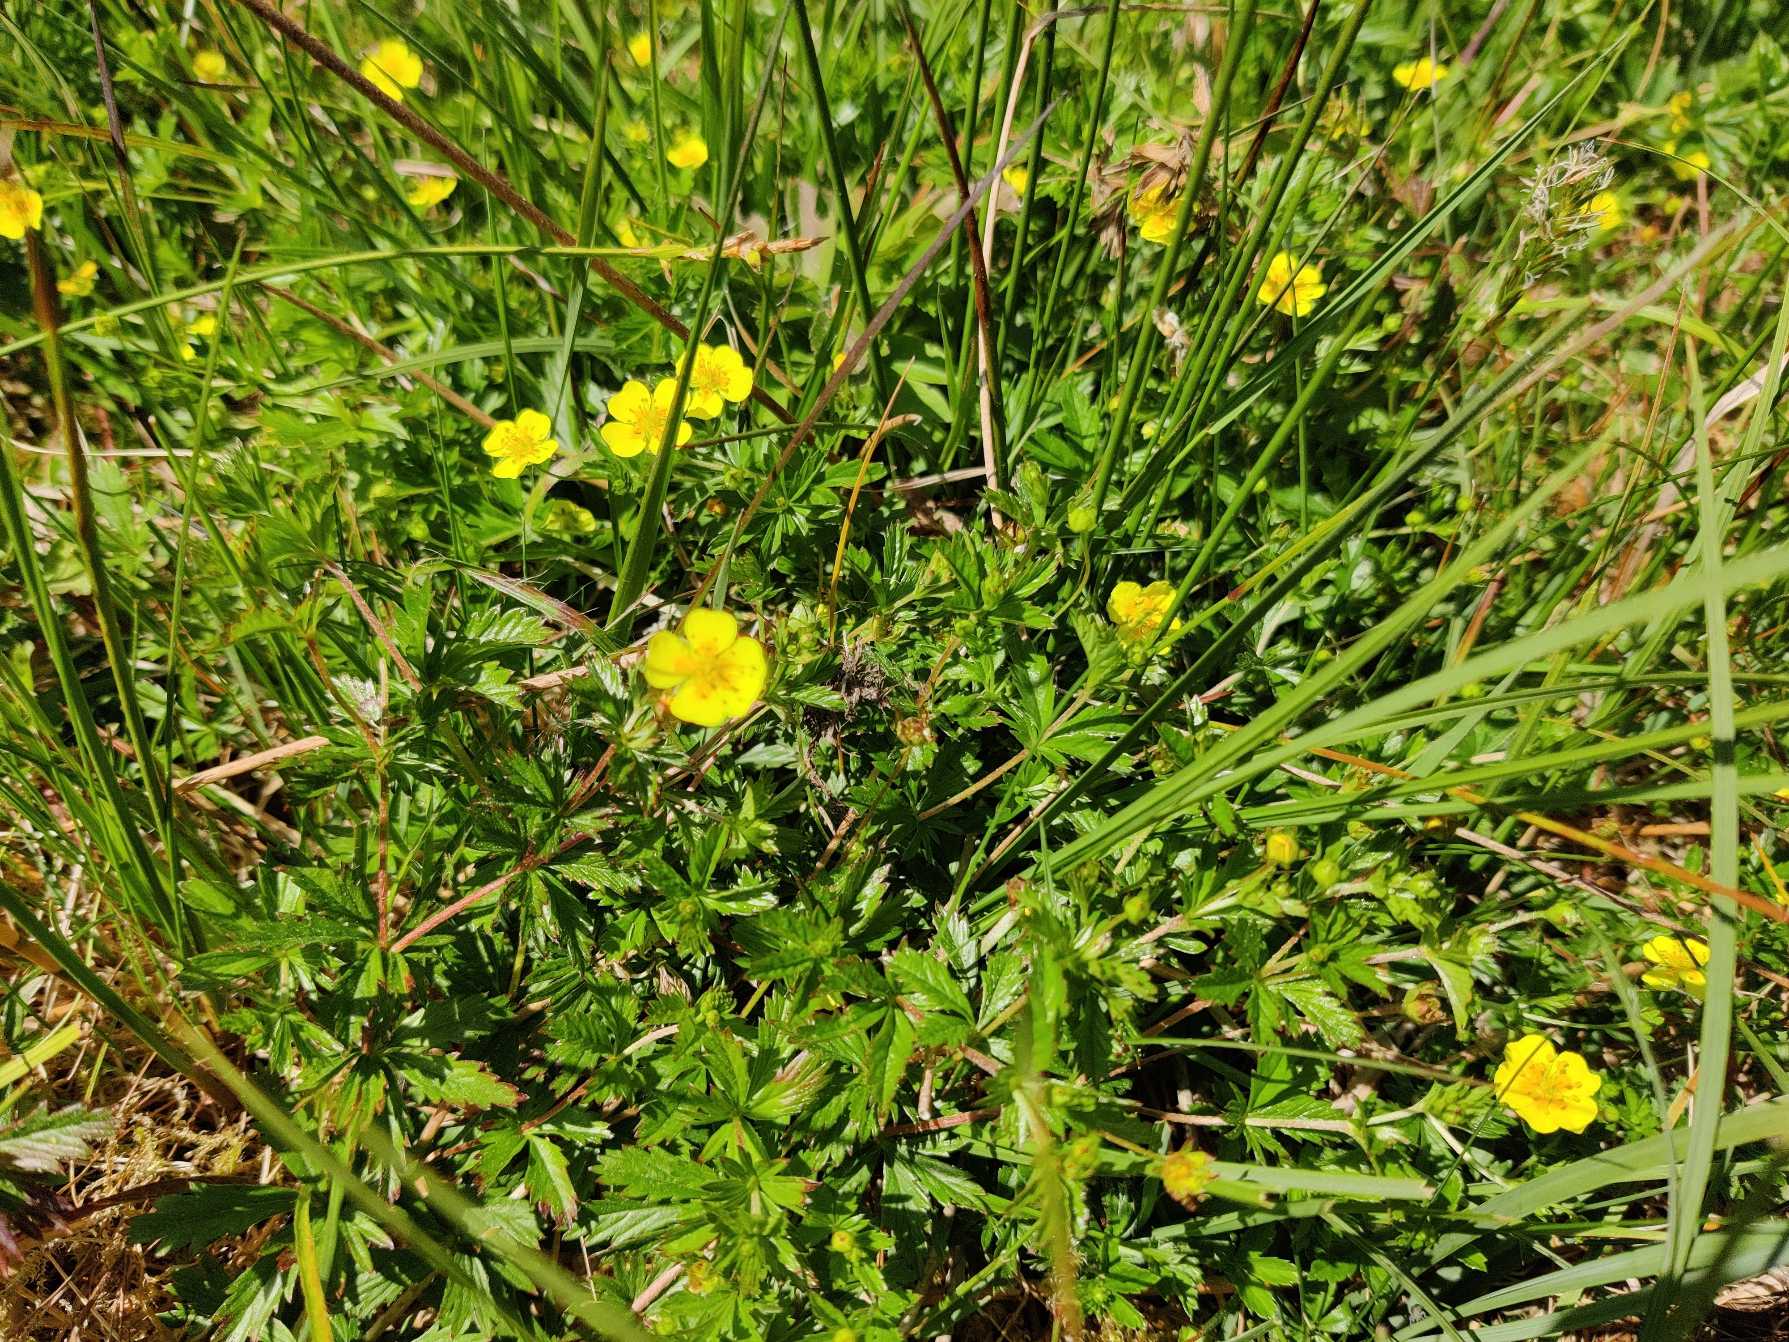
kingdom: Plantae
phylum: Tracheophyta
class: Magnoliopsida
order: Rosales
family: Rosaceae
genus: Potentilla
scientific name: Potentilla erecta
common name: Tormentil
